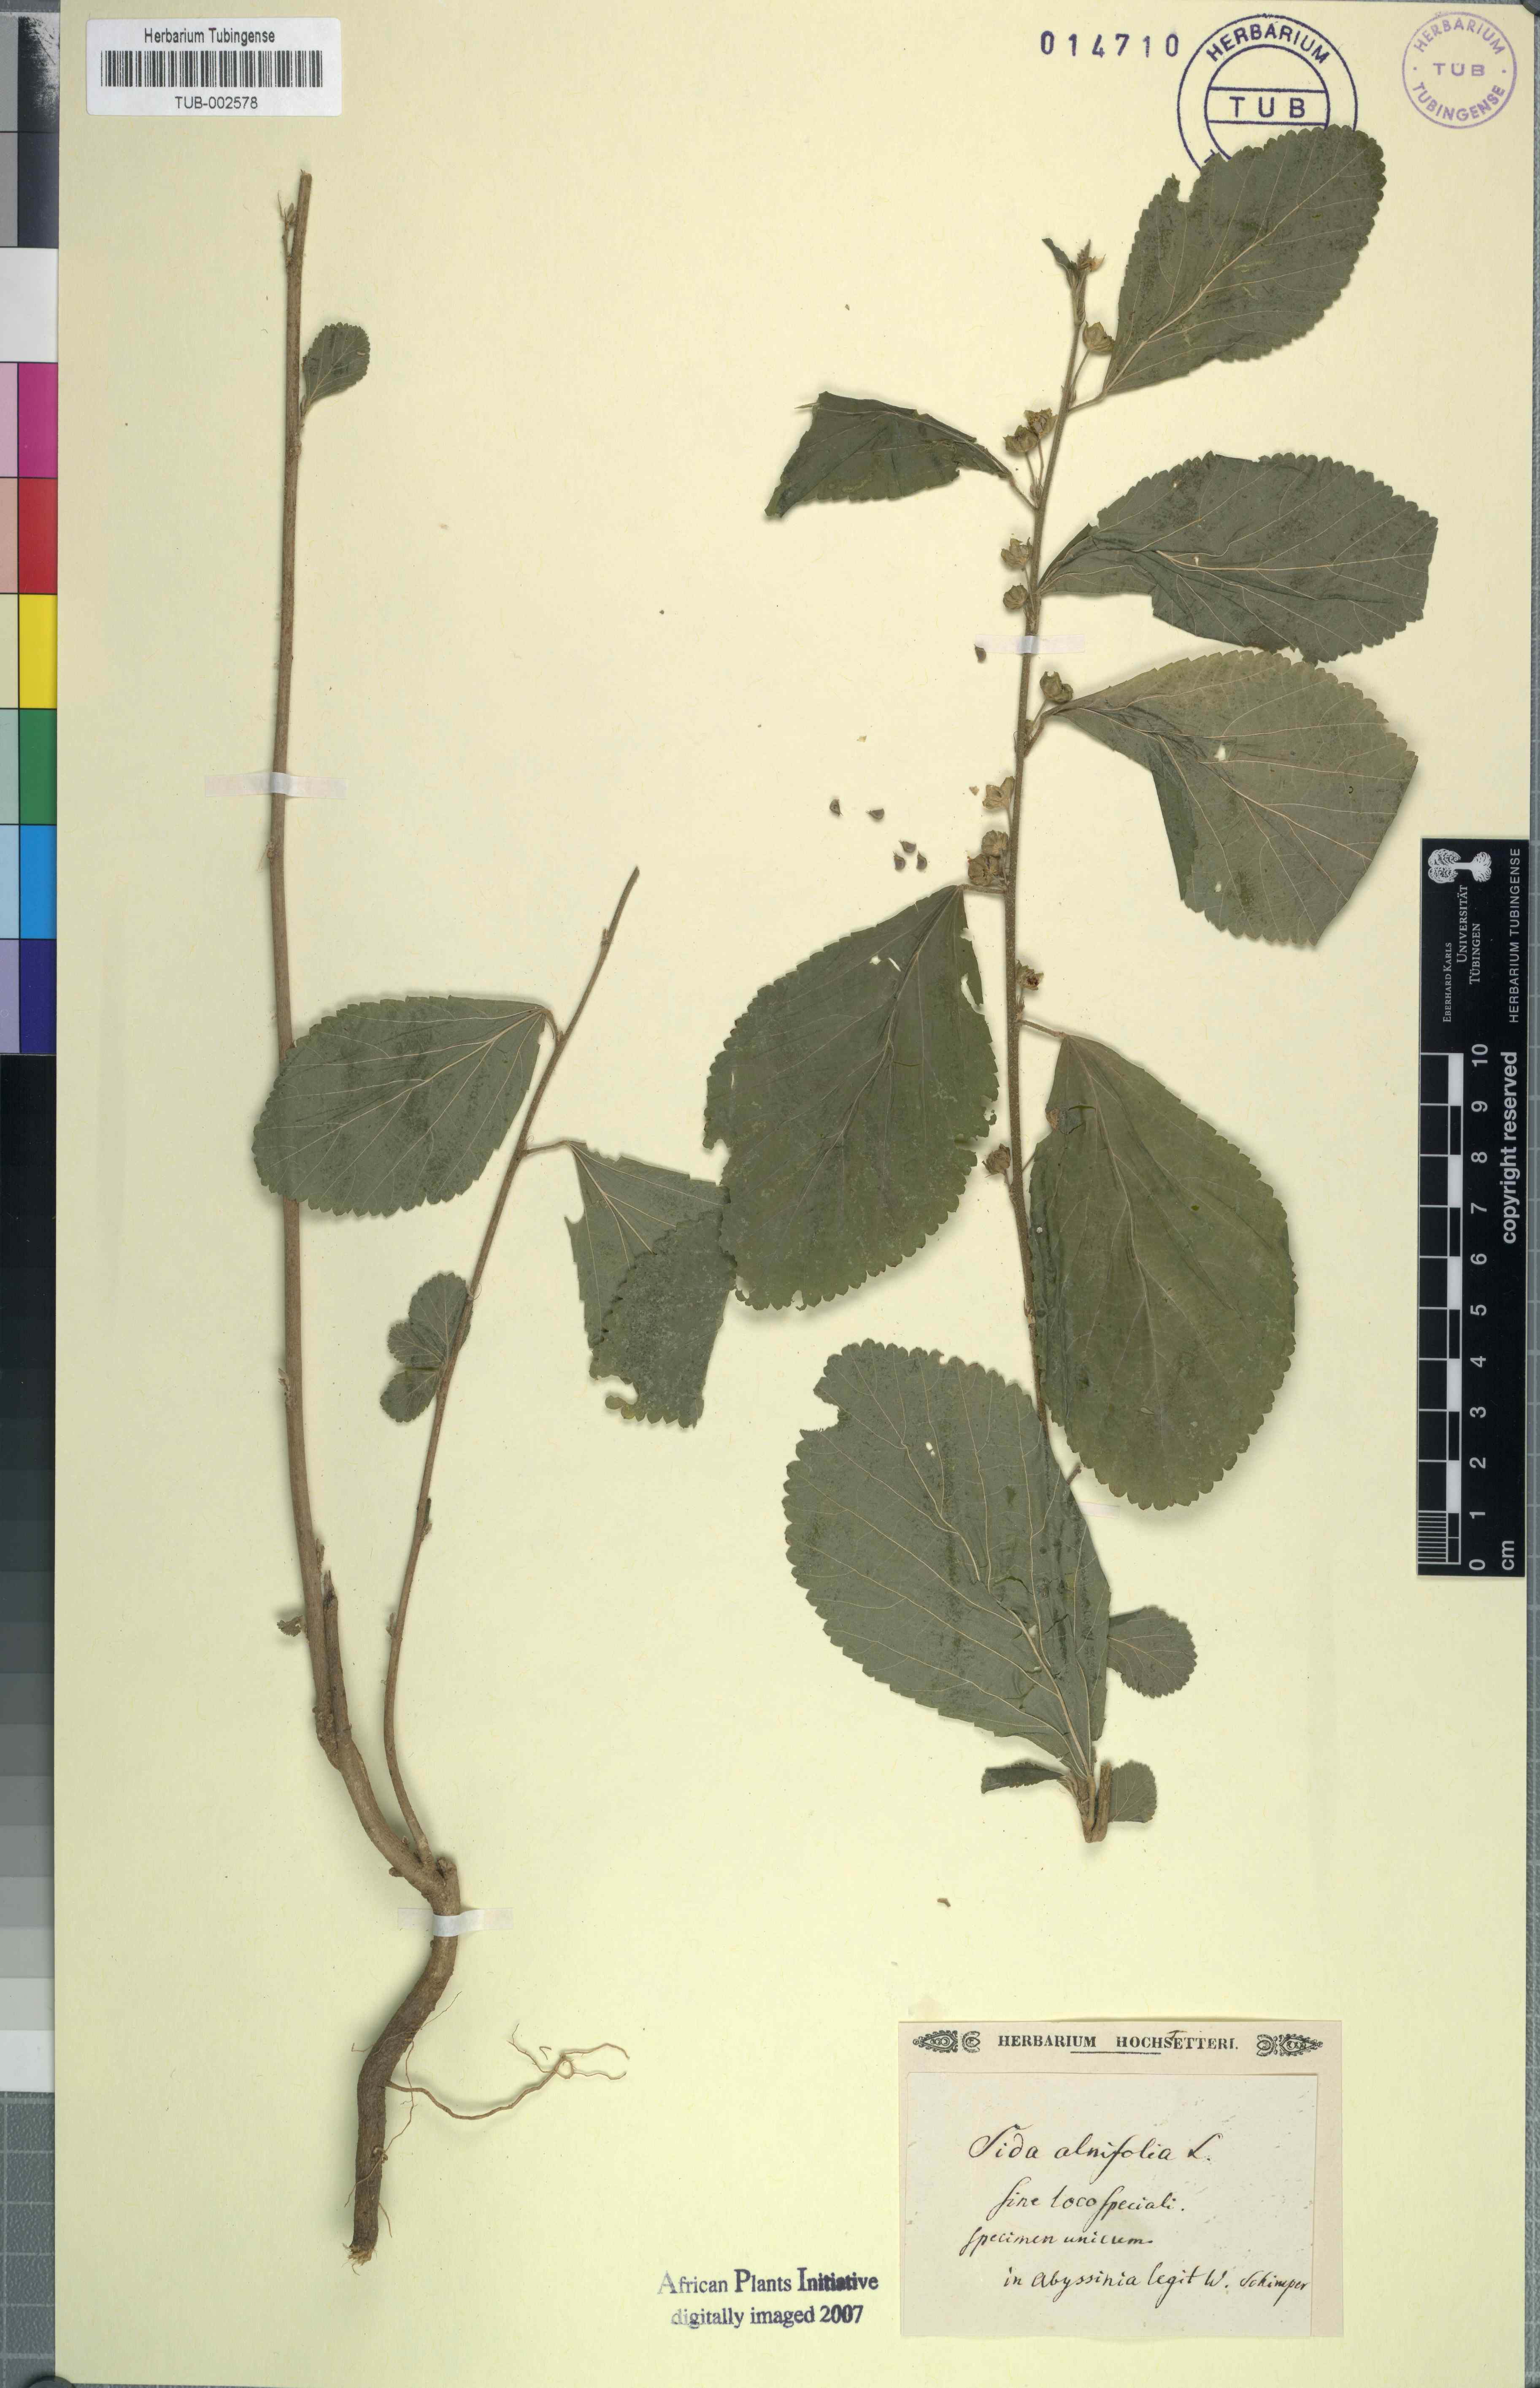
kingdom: Plantae
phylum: Tracheophyta
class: Magnoliopsida
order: Malvales
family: Malvaceae
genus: Sida
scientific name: Sida spinosa
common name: Prickly fanpetals
